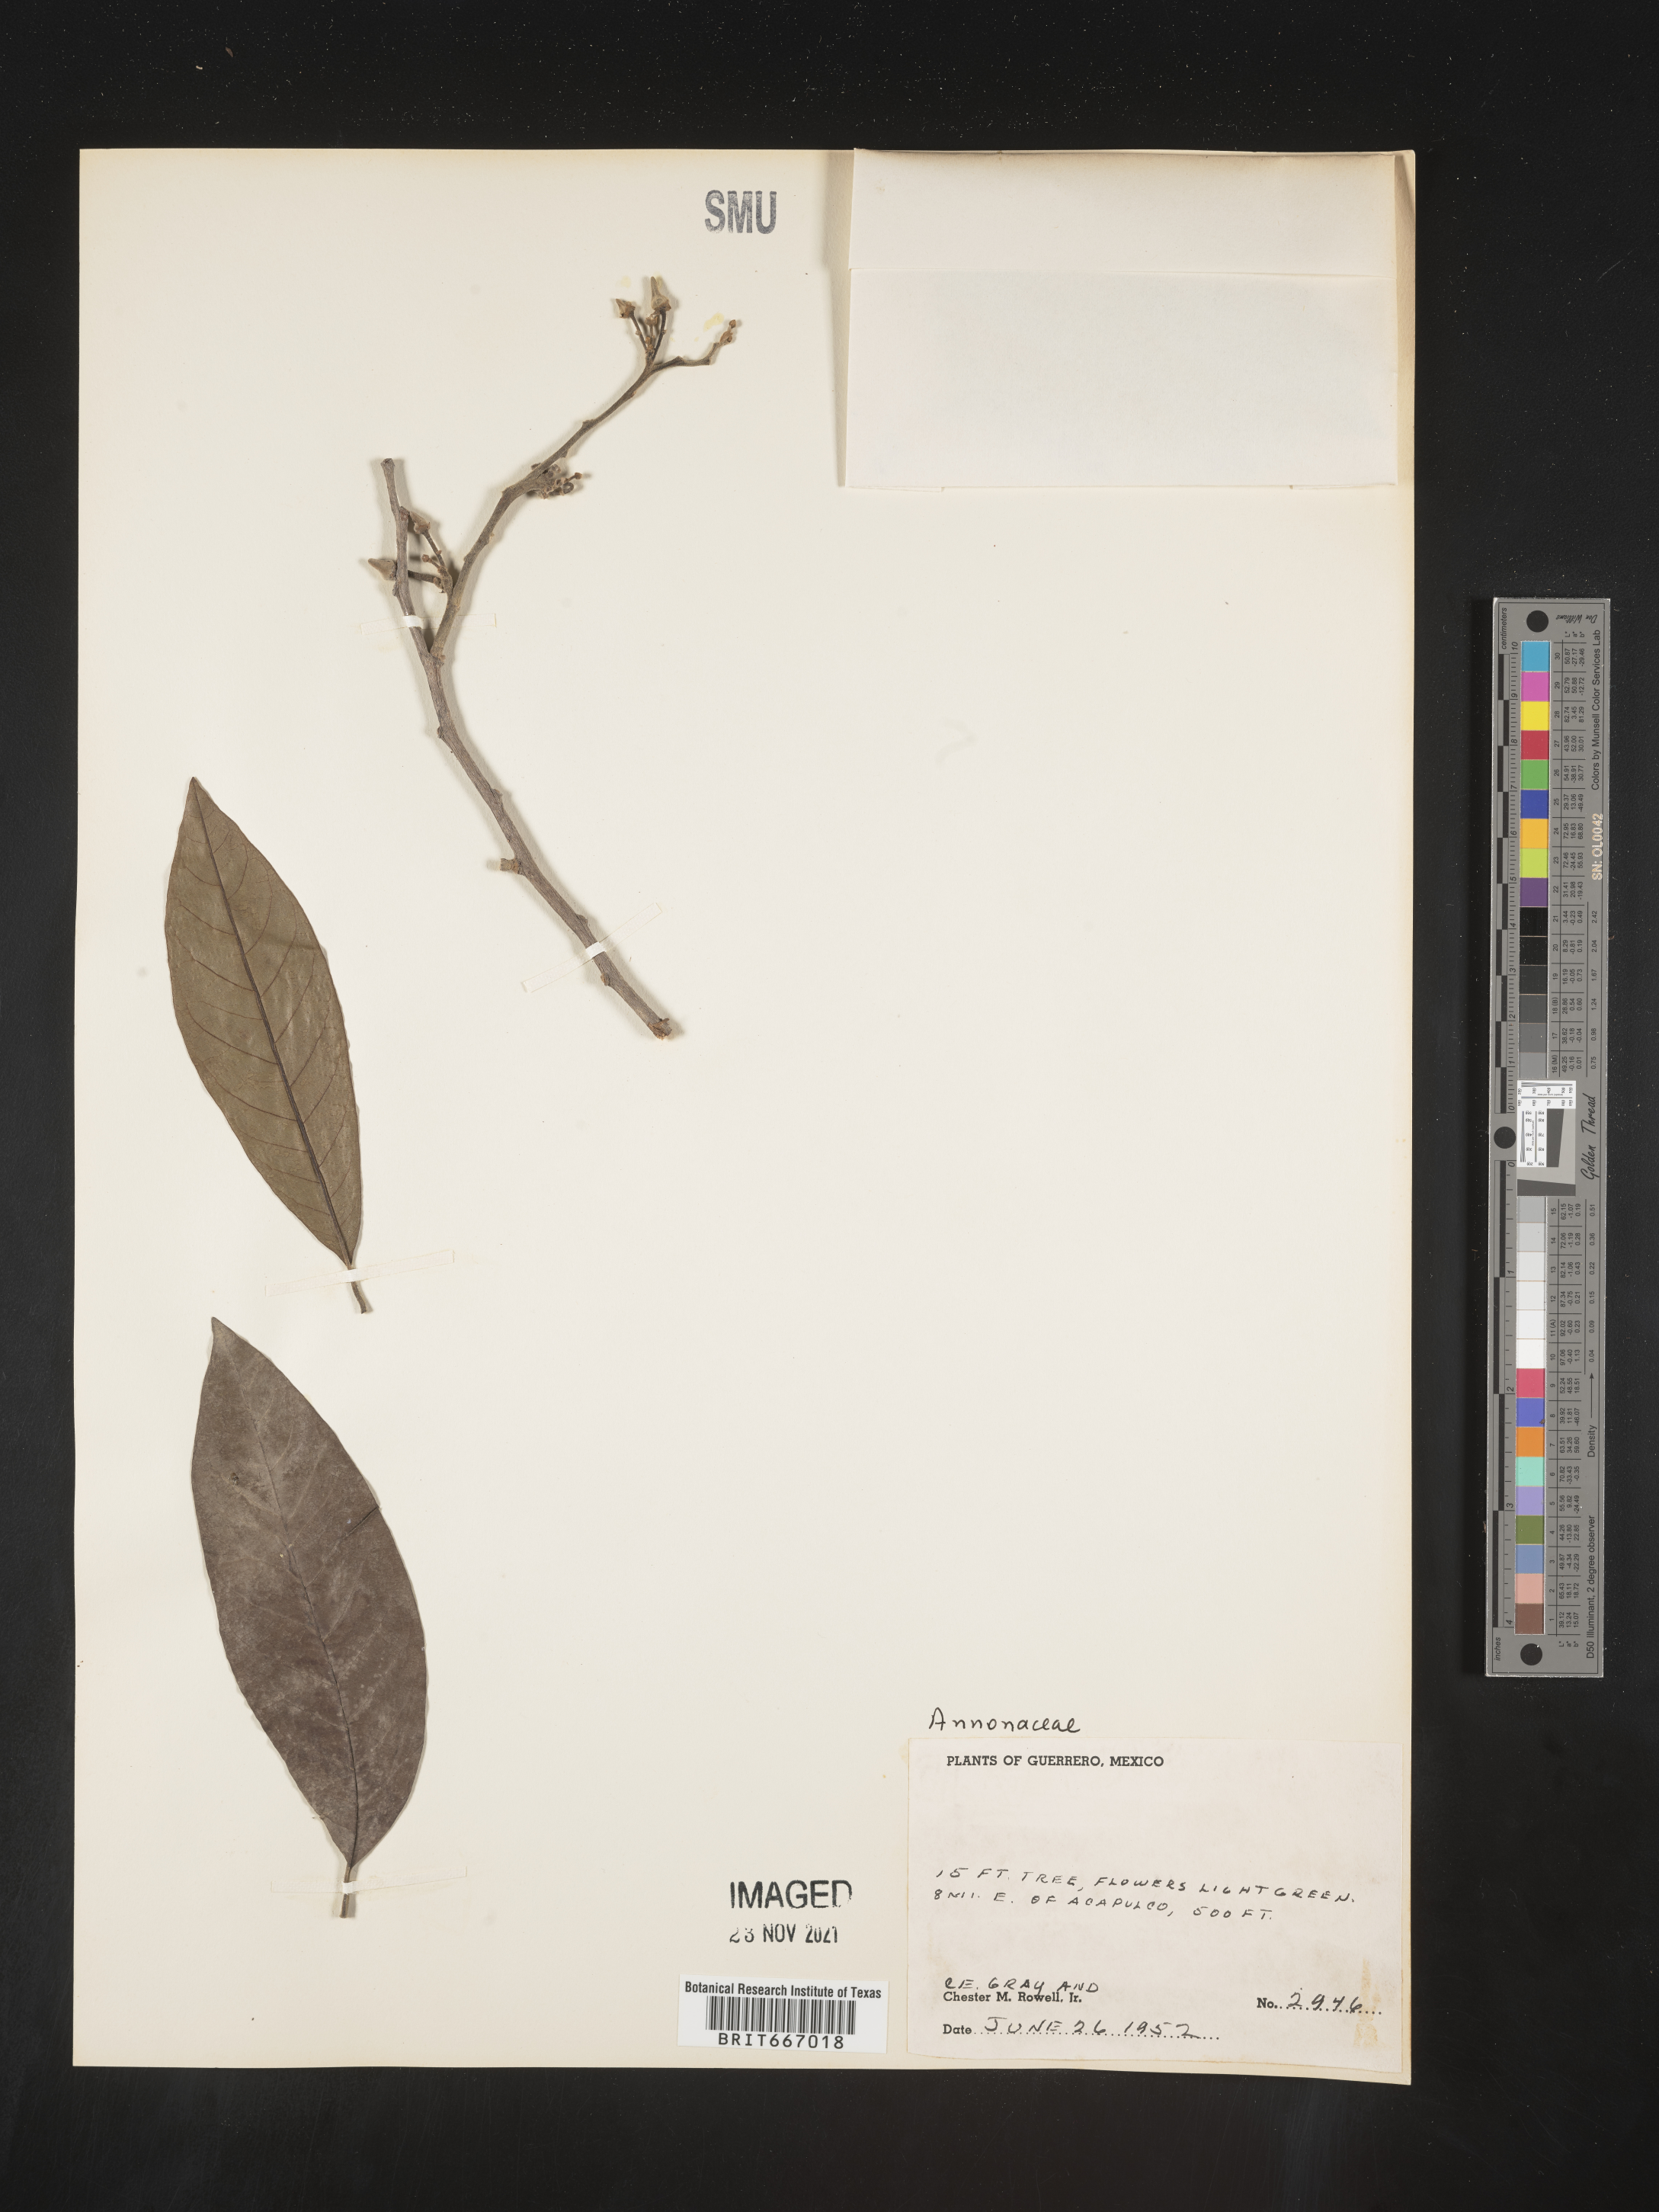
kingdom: Plantae
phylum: Tracheophyta
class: Magnoliopsida
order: Magnoliales
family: Annonaceae
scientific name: Annonaceae
